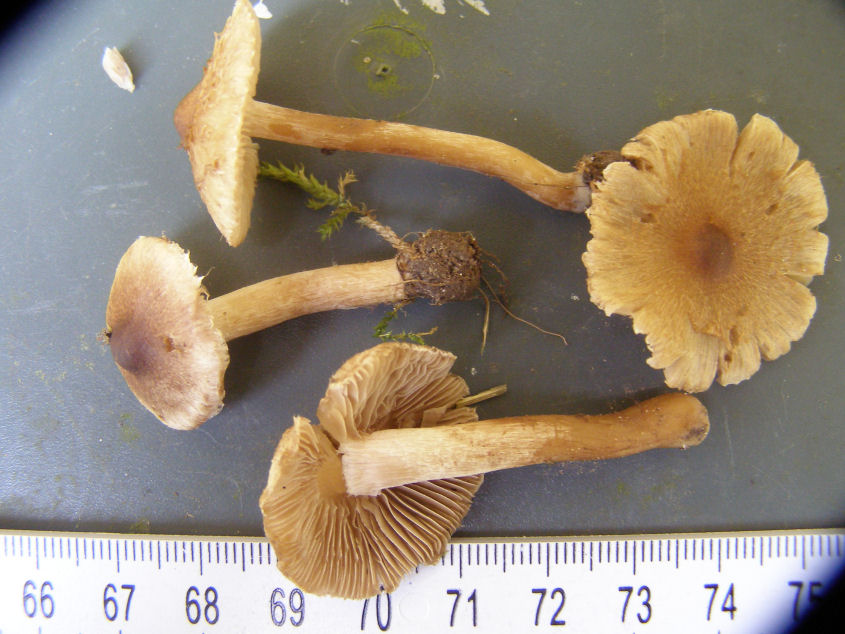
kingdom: Fungi
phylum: Basidiomycota
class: Agaricomycetes
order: Agaricales
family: Inocybaceae
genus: Inocybe
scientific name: Inocybe curvipes
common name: plæne-trævlhat
